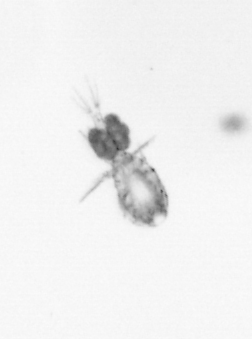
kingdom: Animalia
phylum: Arthropoda
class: Copepoda
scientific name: Copepoda
